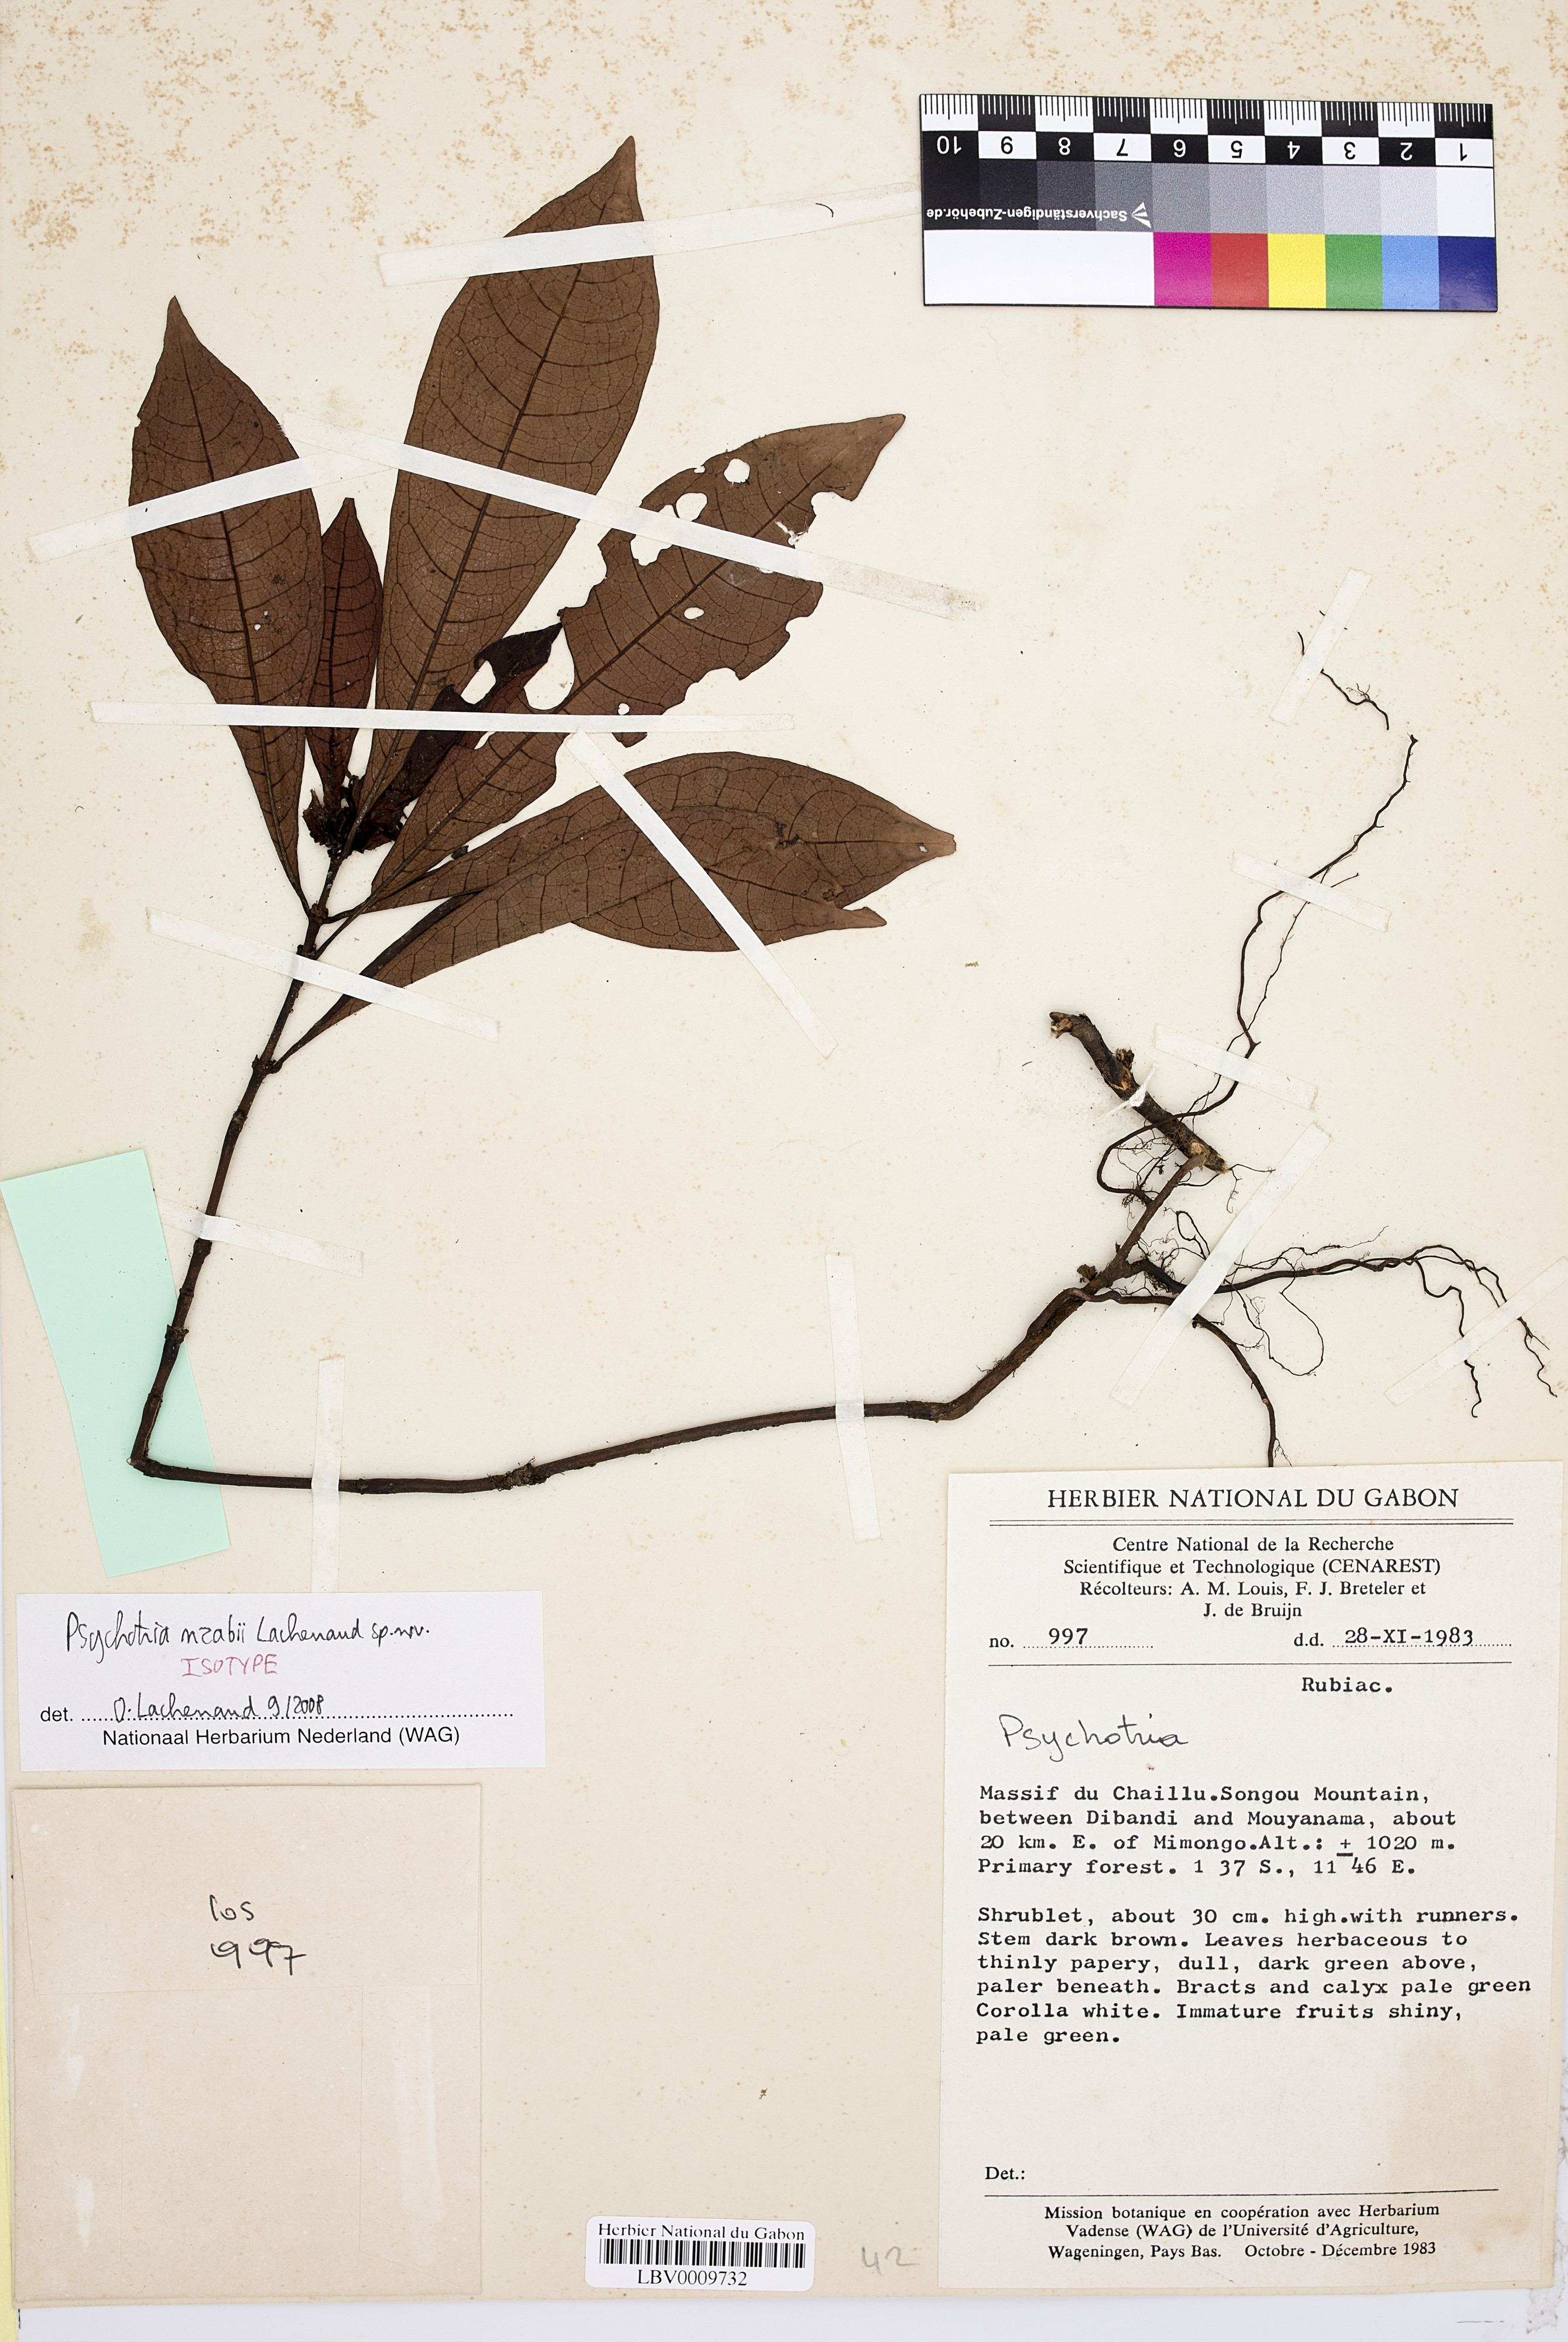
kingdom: Plantae
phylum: Tracheophyta
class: Magnoliopsida
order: Gentianales
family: Rubiaceae
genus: Psychotria
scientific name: Psychotria nzabii
